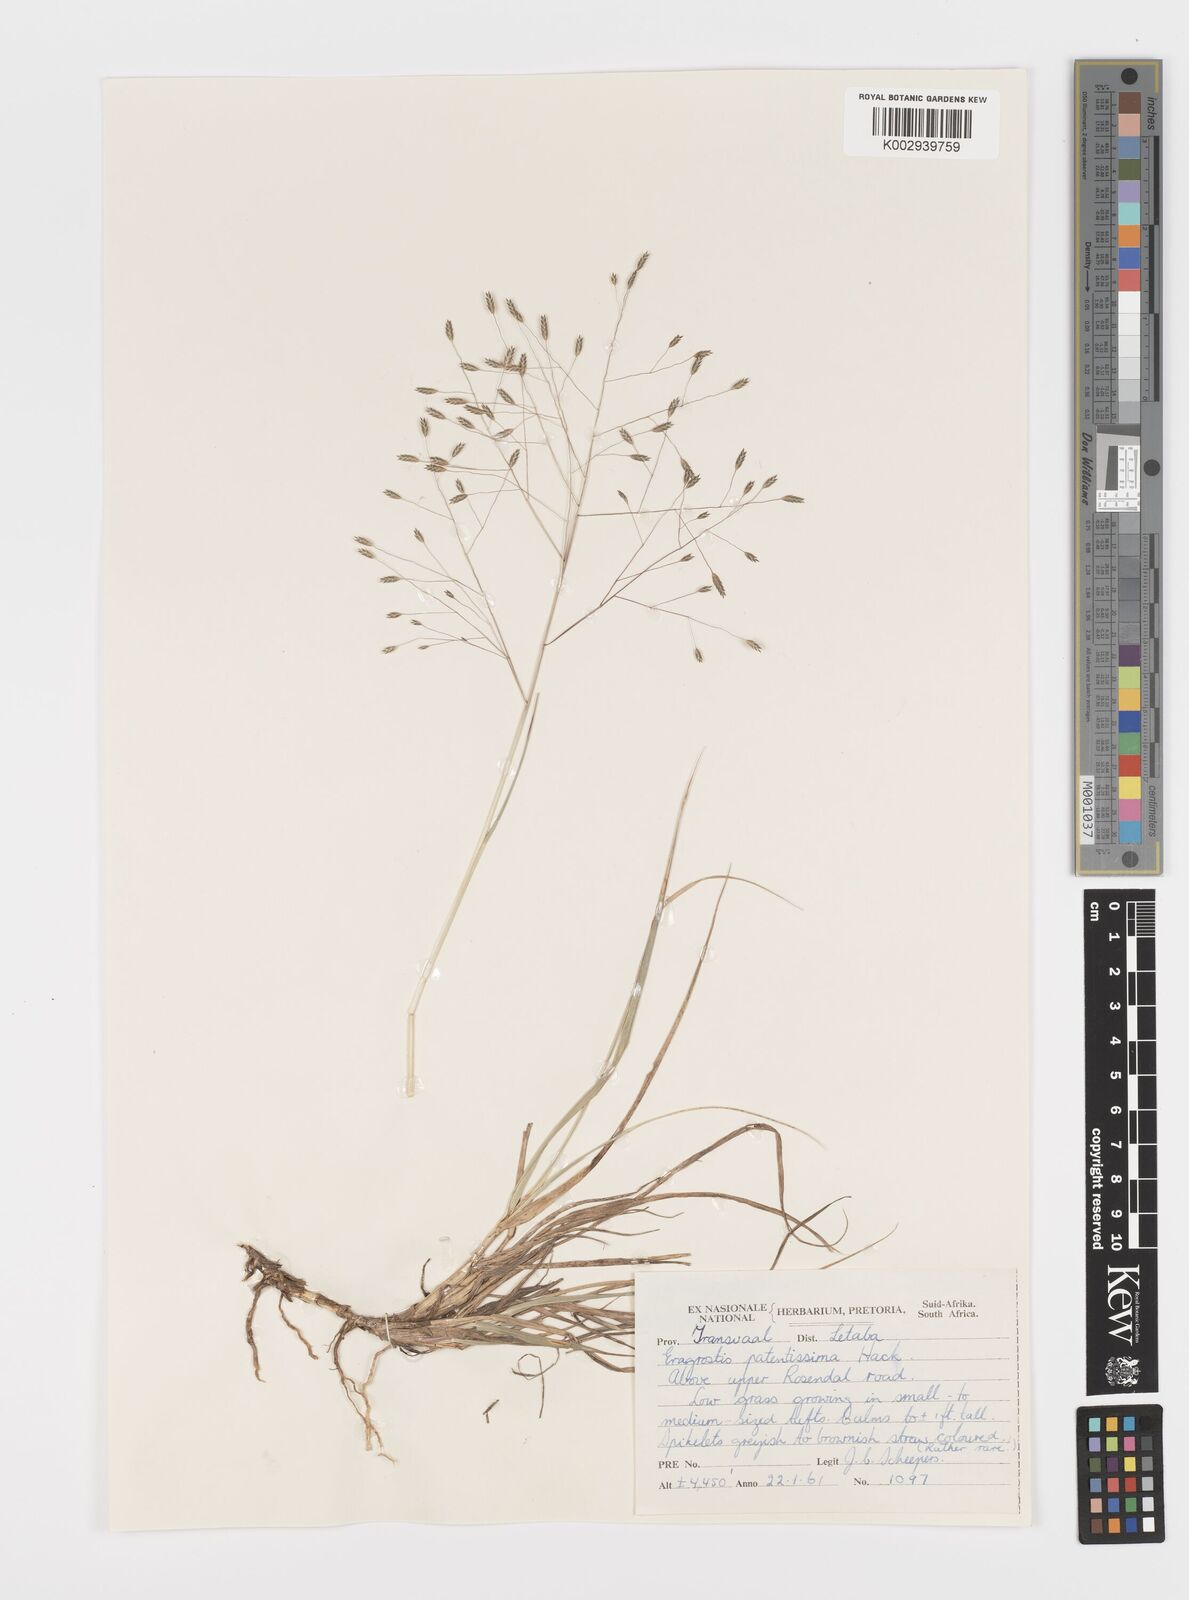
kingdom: Plantae
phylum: Tracheophyta
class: Liliopsida
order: Poales
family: Poaceae
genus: Eragrostis
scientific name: Eragrostis patentissima
